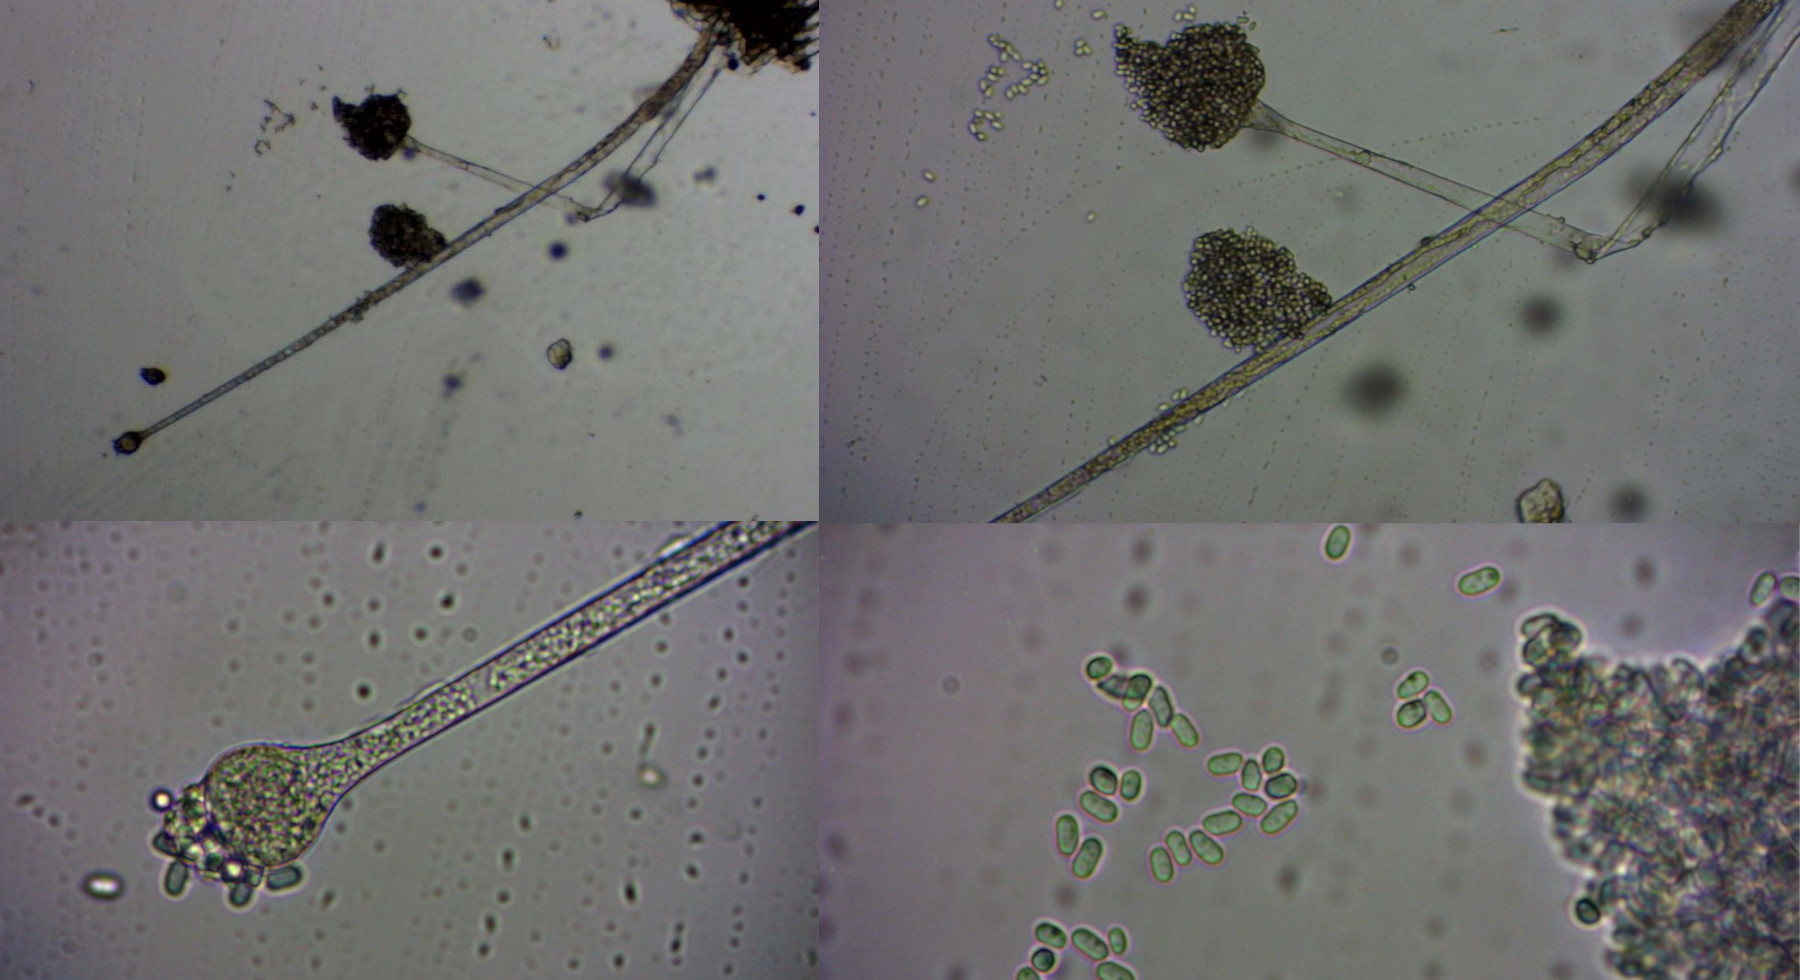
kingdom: Fungi
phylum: Mucoromycota
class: Mucoromycetes
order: Mucorales
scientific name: Mucorales
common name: mugordenen
